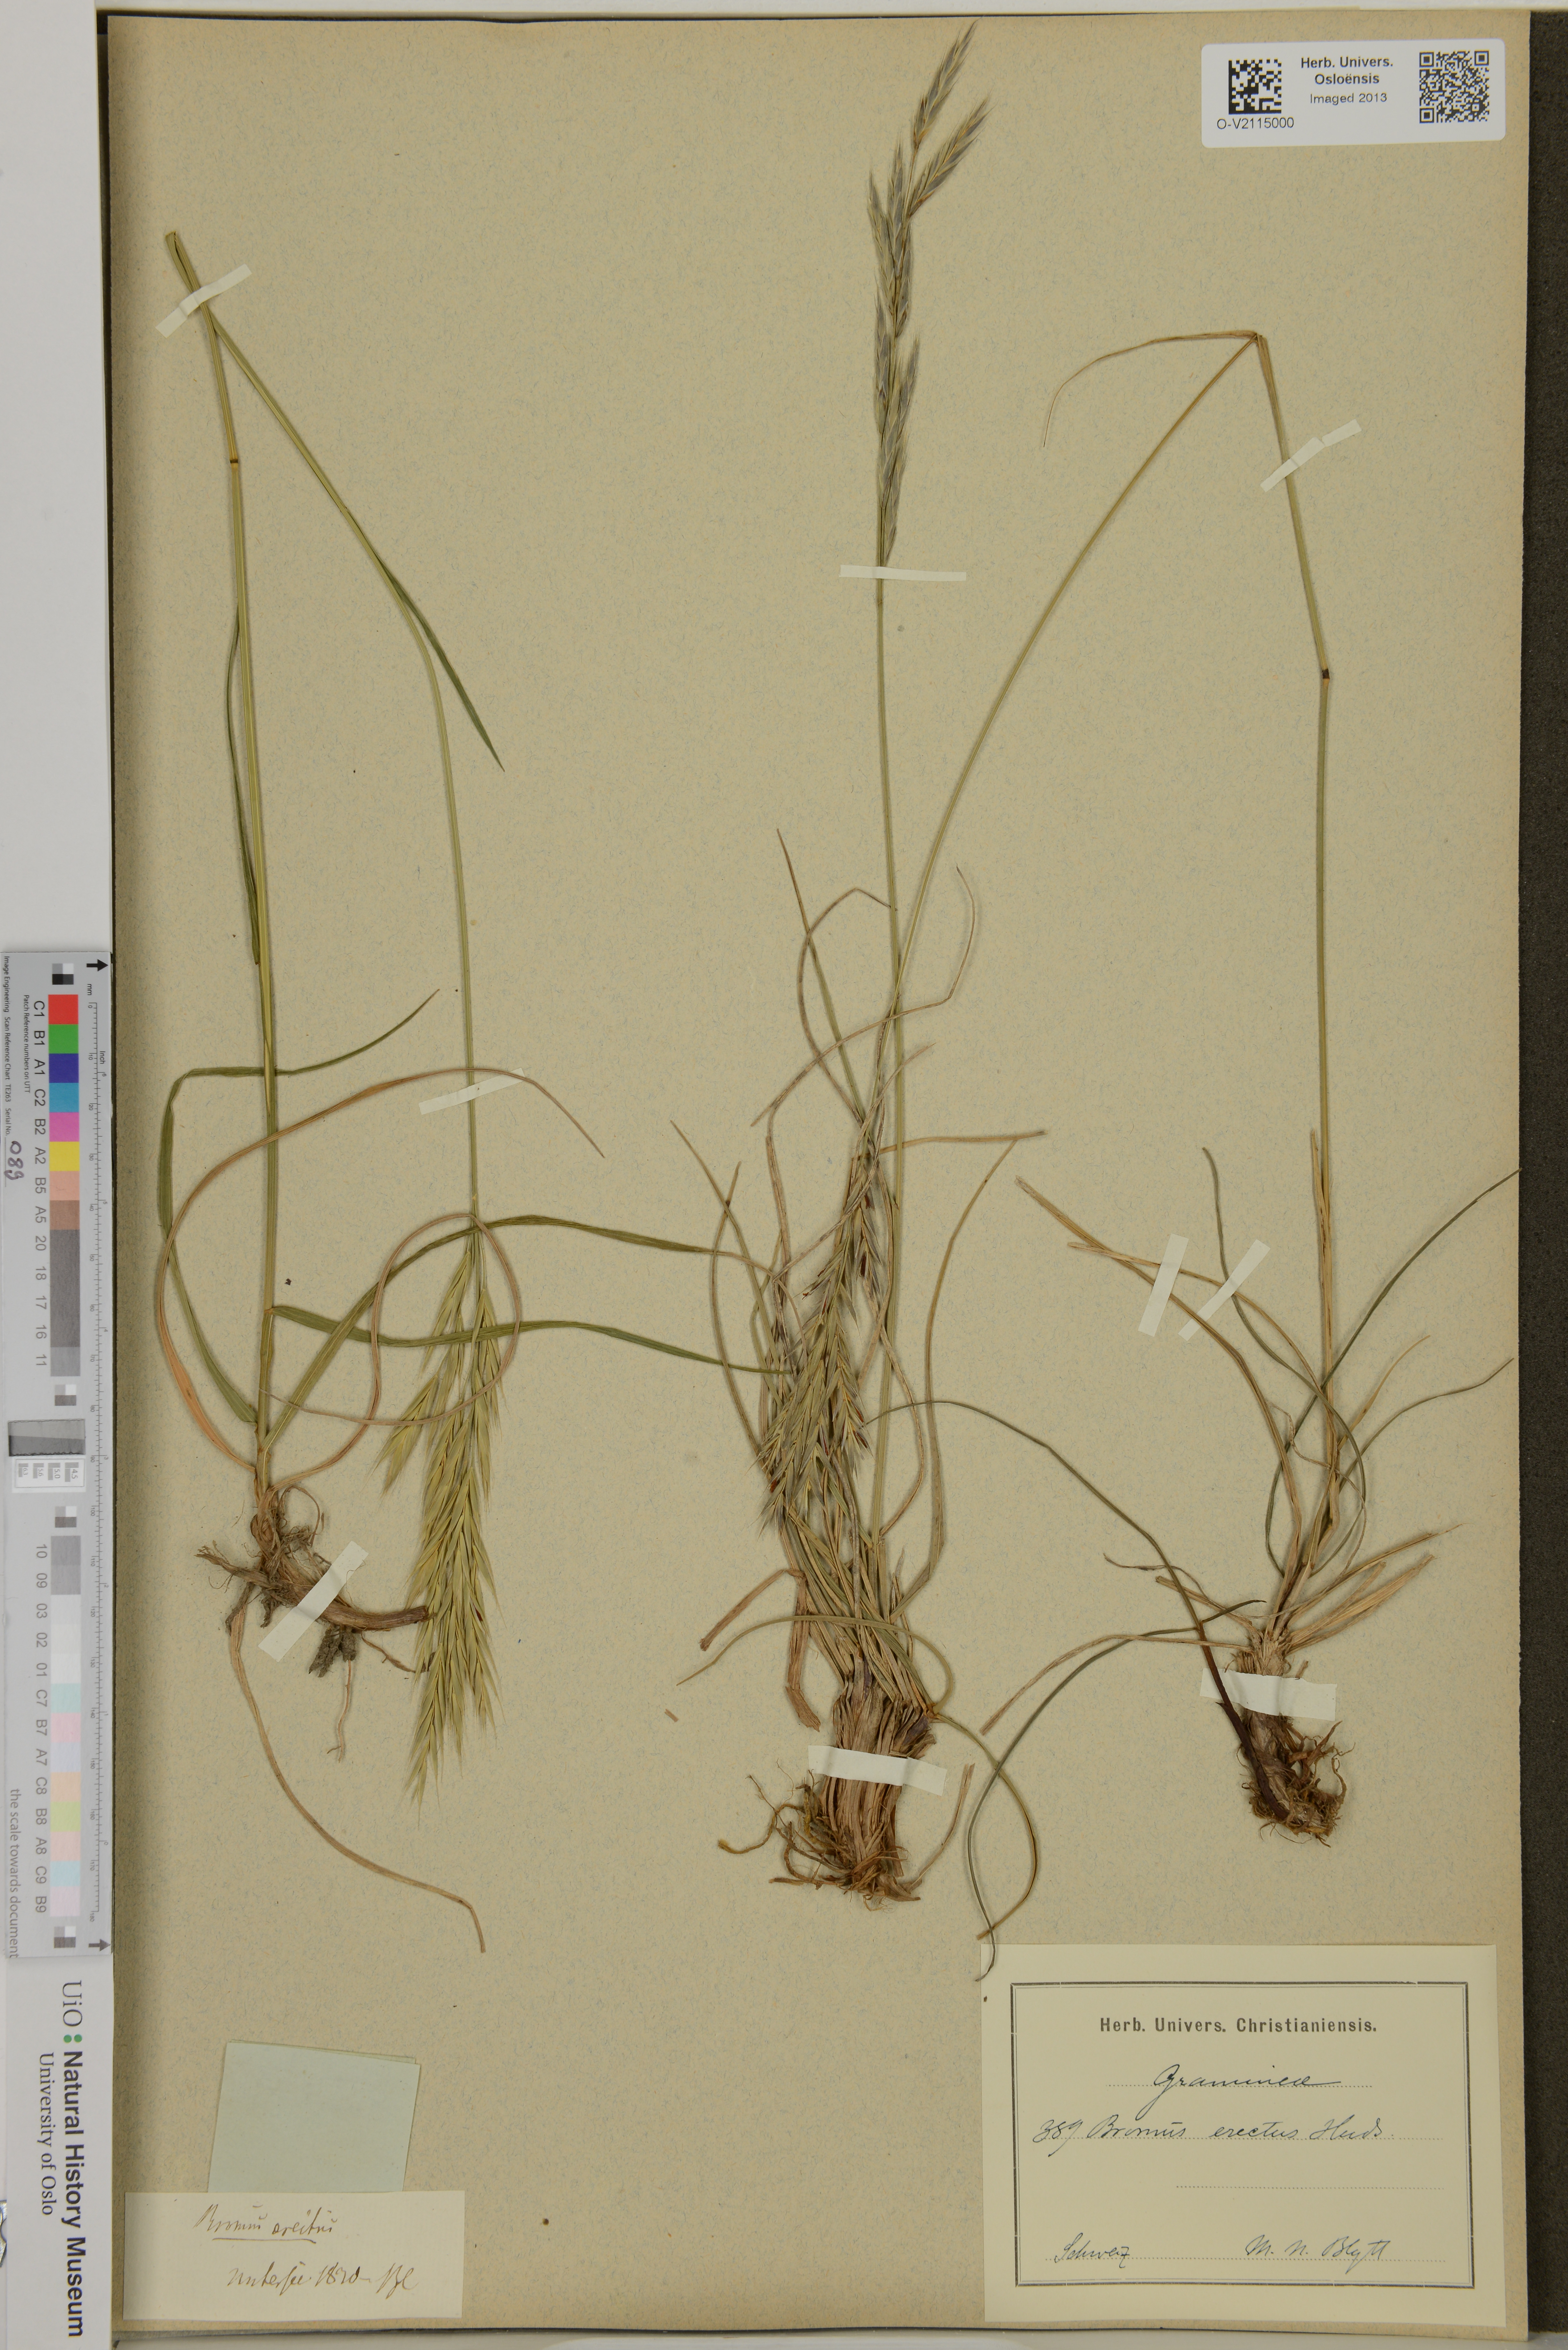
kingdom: Plantae
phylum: Tracheophyta
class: Liliopsida
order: Poales
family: Poaceae
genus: Bromus
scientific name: Bromus erectus
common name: Erect brome
